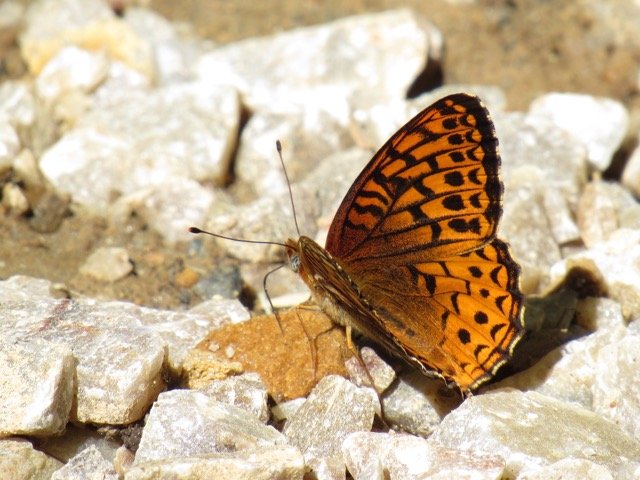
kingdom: Animalia
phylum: Arthropoda
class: Insecta
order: Lepidoptera
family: Nymphalidae
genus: Speyeria
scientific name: Speyeria atlantis
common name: Atlantis Fritillary
